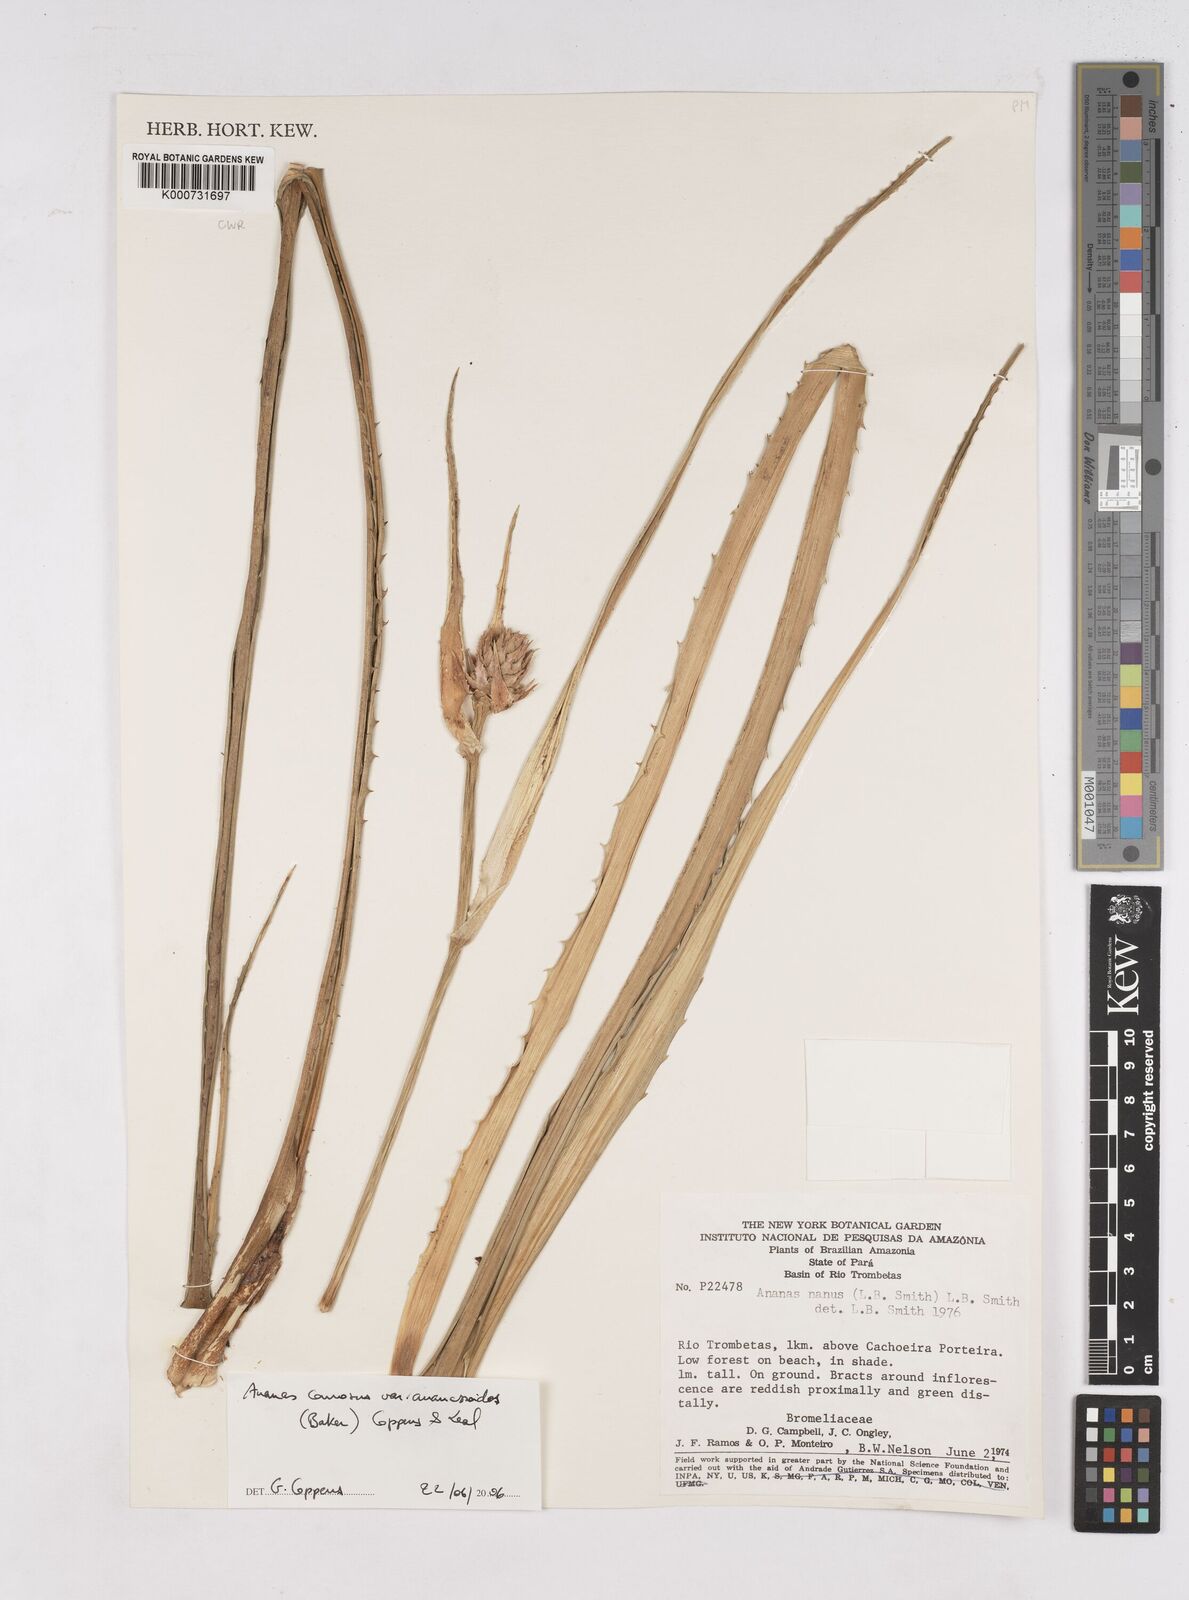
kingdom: Plantae
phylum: Tracheophyta
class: Liliopsida
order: Poales
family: Bromeliaceae
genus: Ananas
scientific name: Ananas comosus
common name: Pineapple
